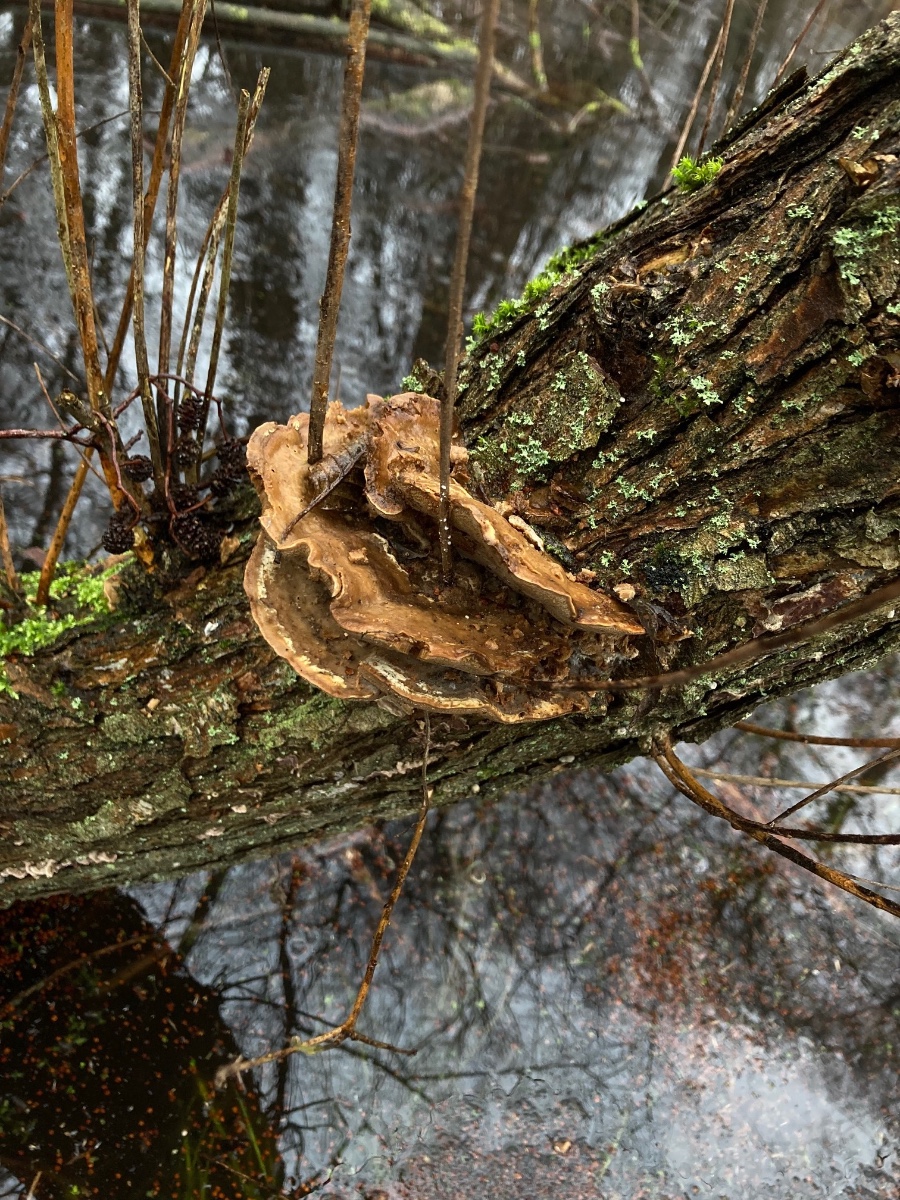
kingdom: Fungi
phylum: Basidiomycota
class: Agaricomycetes
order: Polyporales
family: Phanerochaetaceae
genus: Bjerkandera
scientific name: Bjerkandera fumosa
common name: grågul sodporesvamp
